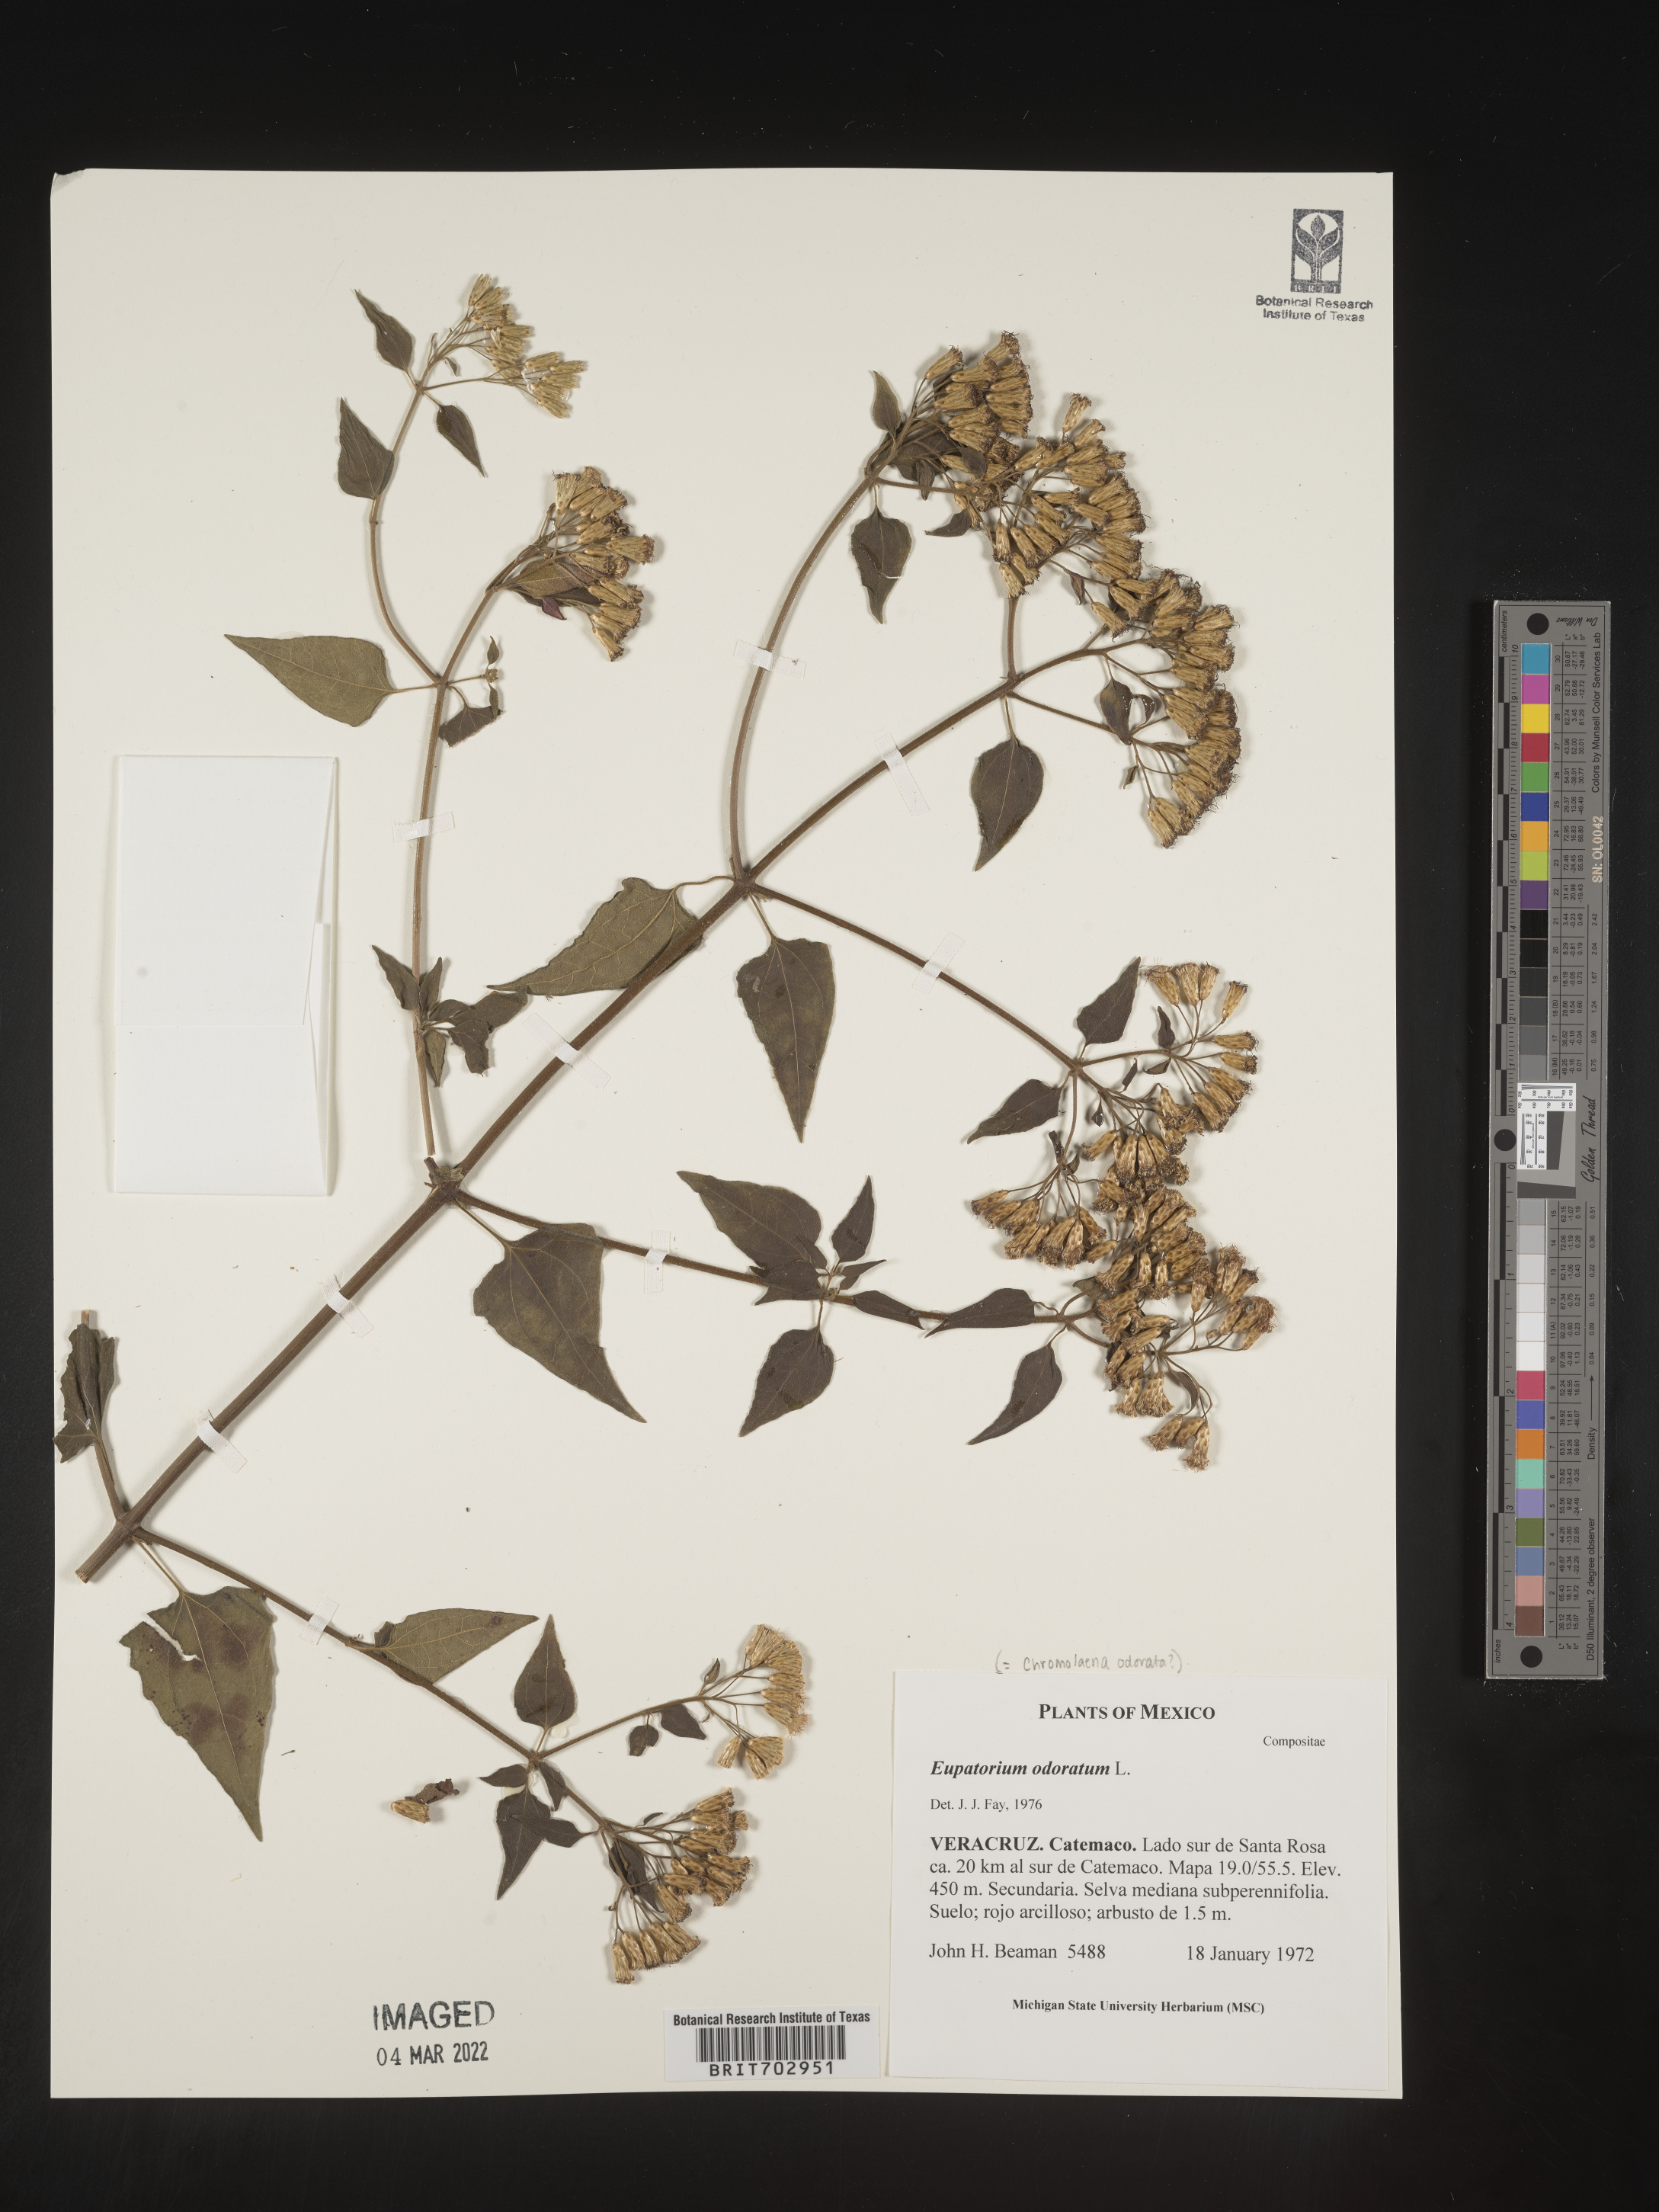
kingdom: Plantae
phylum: Tracheophyta
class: Magnoliopsida
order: Asterales
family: Asteraceae
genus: Eupatorium
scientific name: Eupatorium
